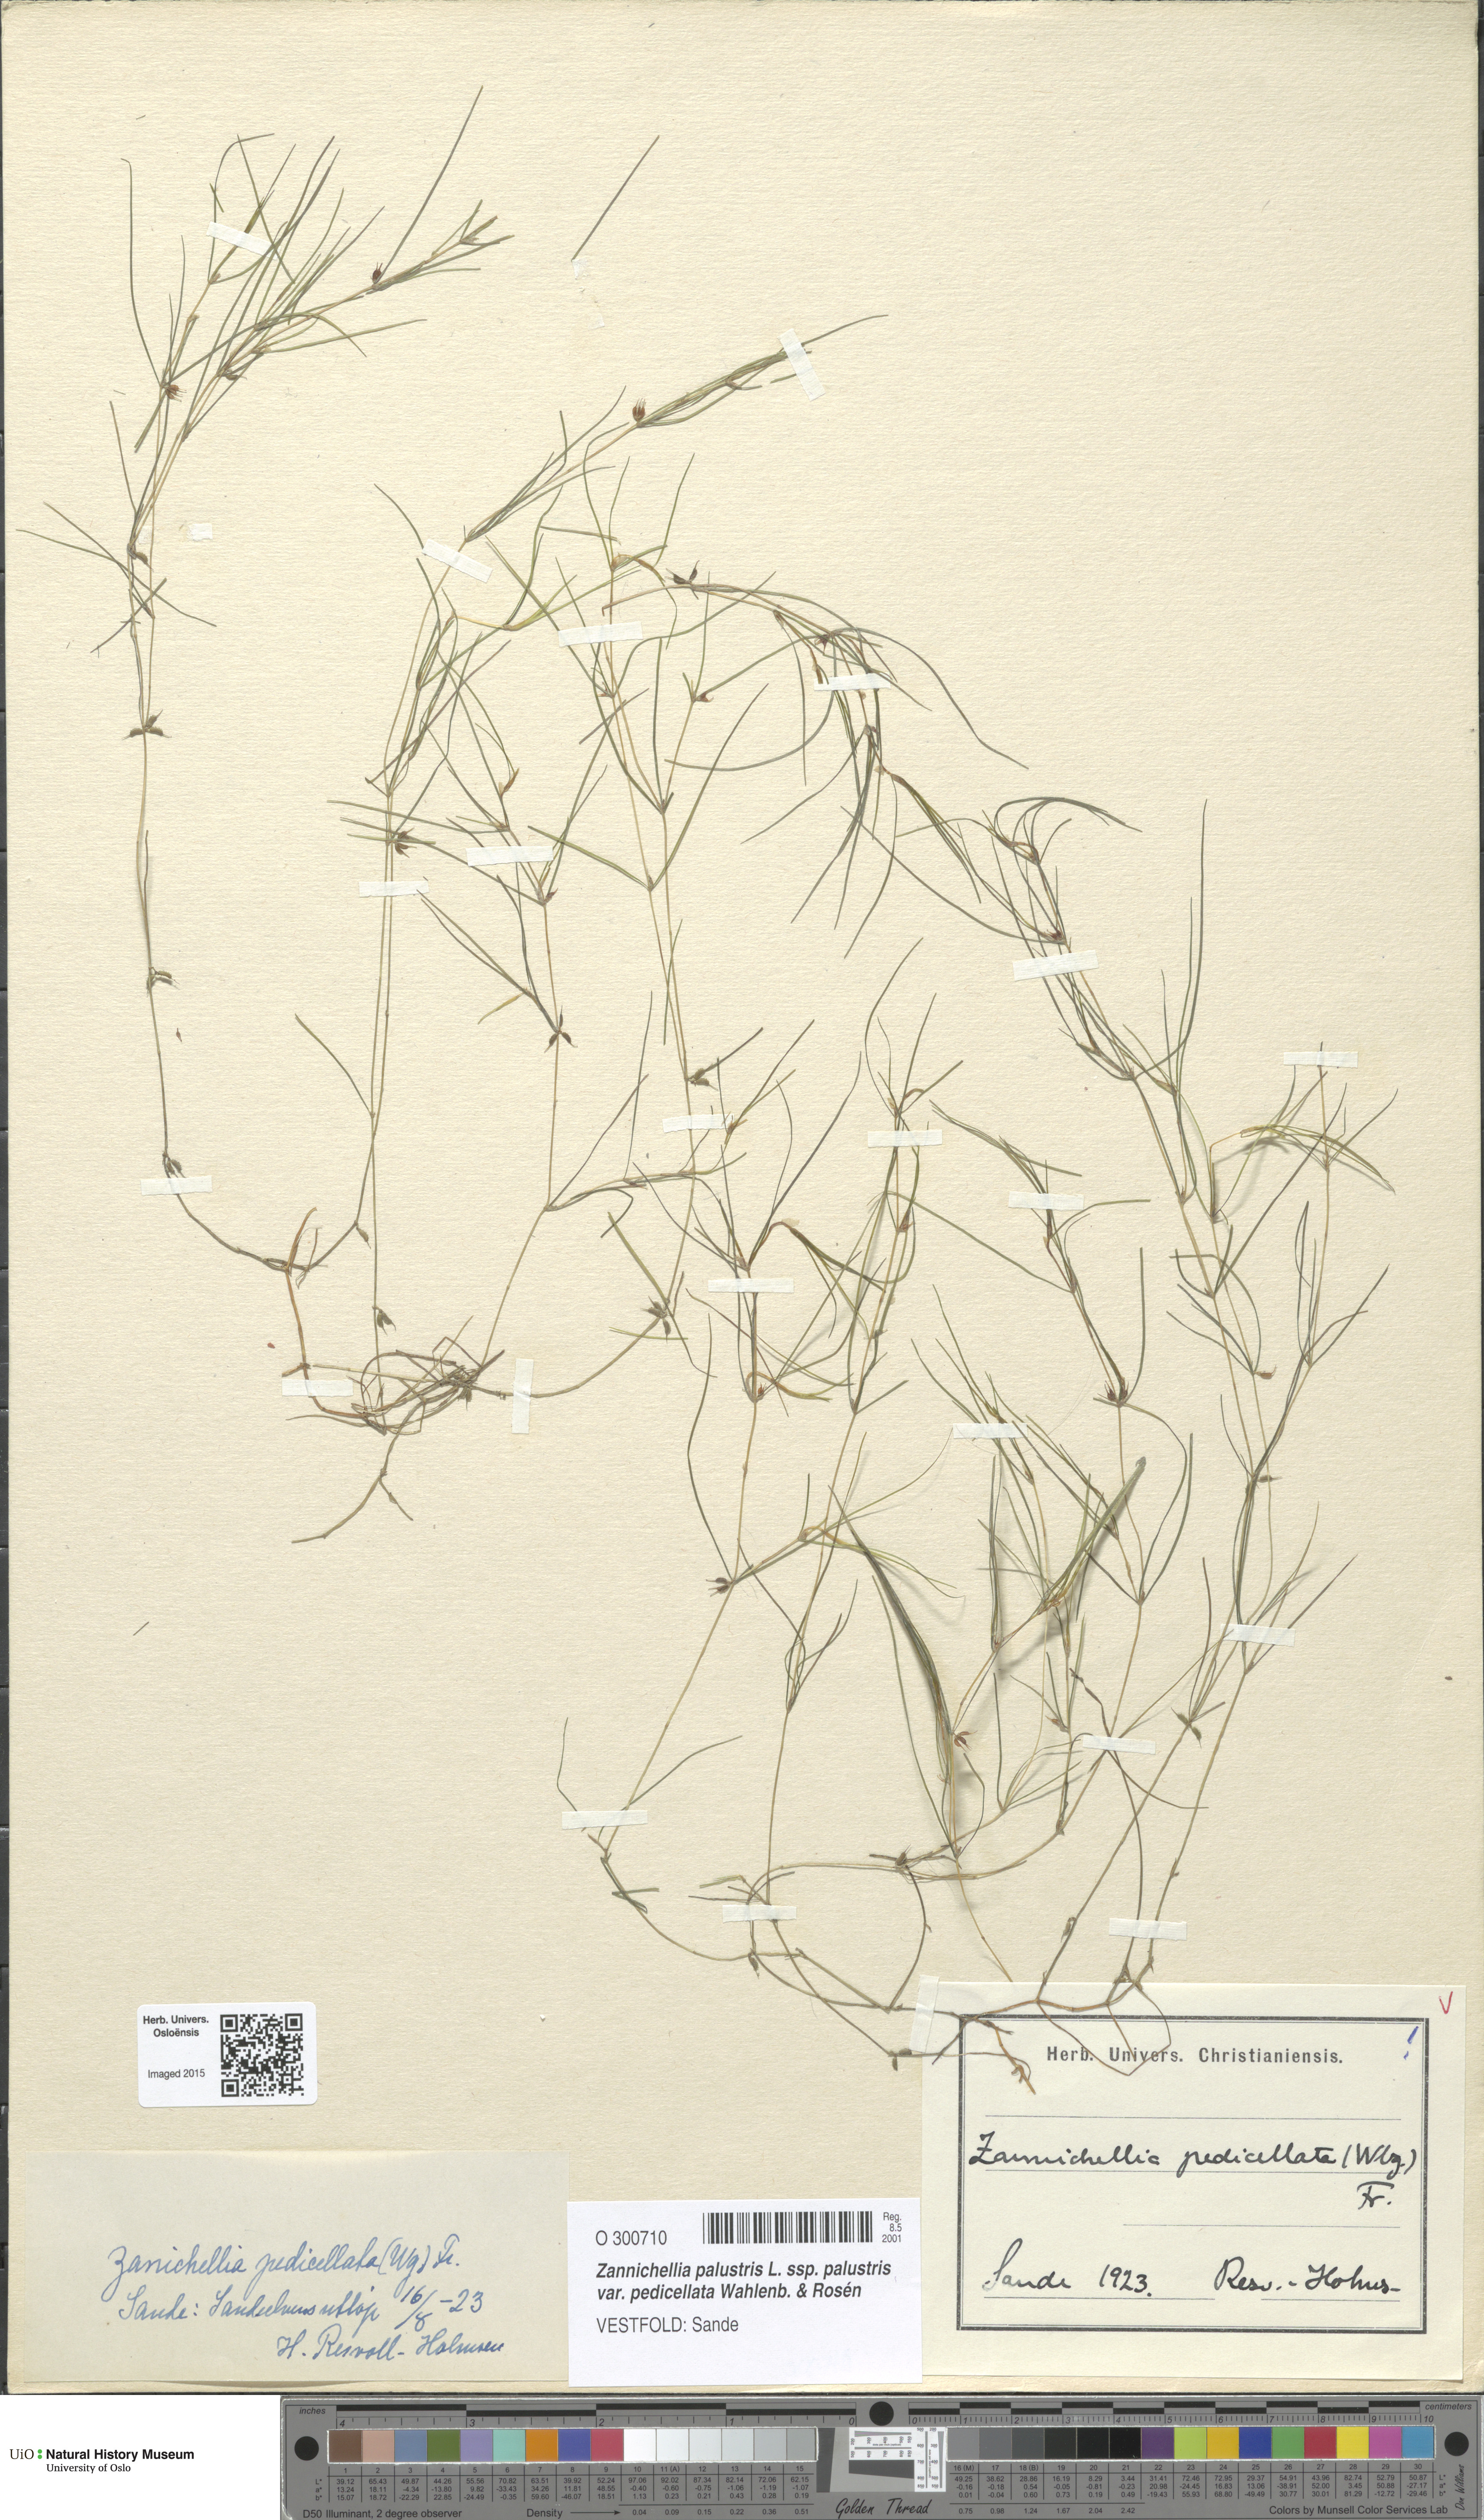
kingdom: Plantae
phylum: Tracheophyta
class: Liliopsida
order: Alismatales
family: Potamogetonaceae
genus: Zannichellia
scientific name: Zannichellia palustris
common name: Horned pondweed
